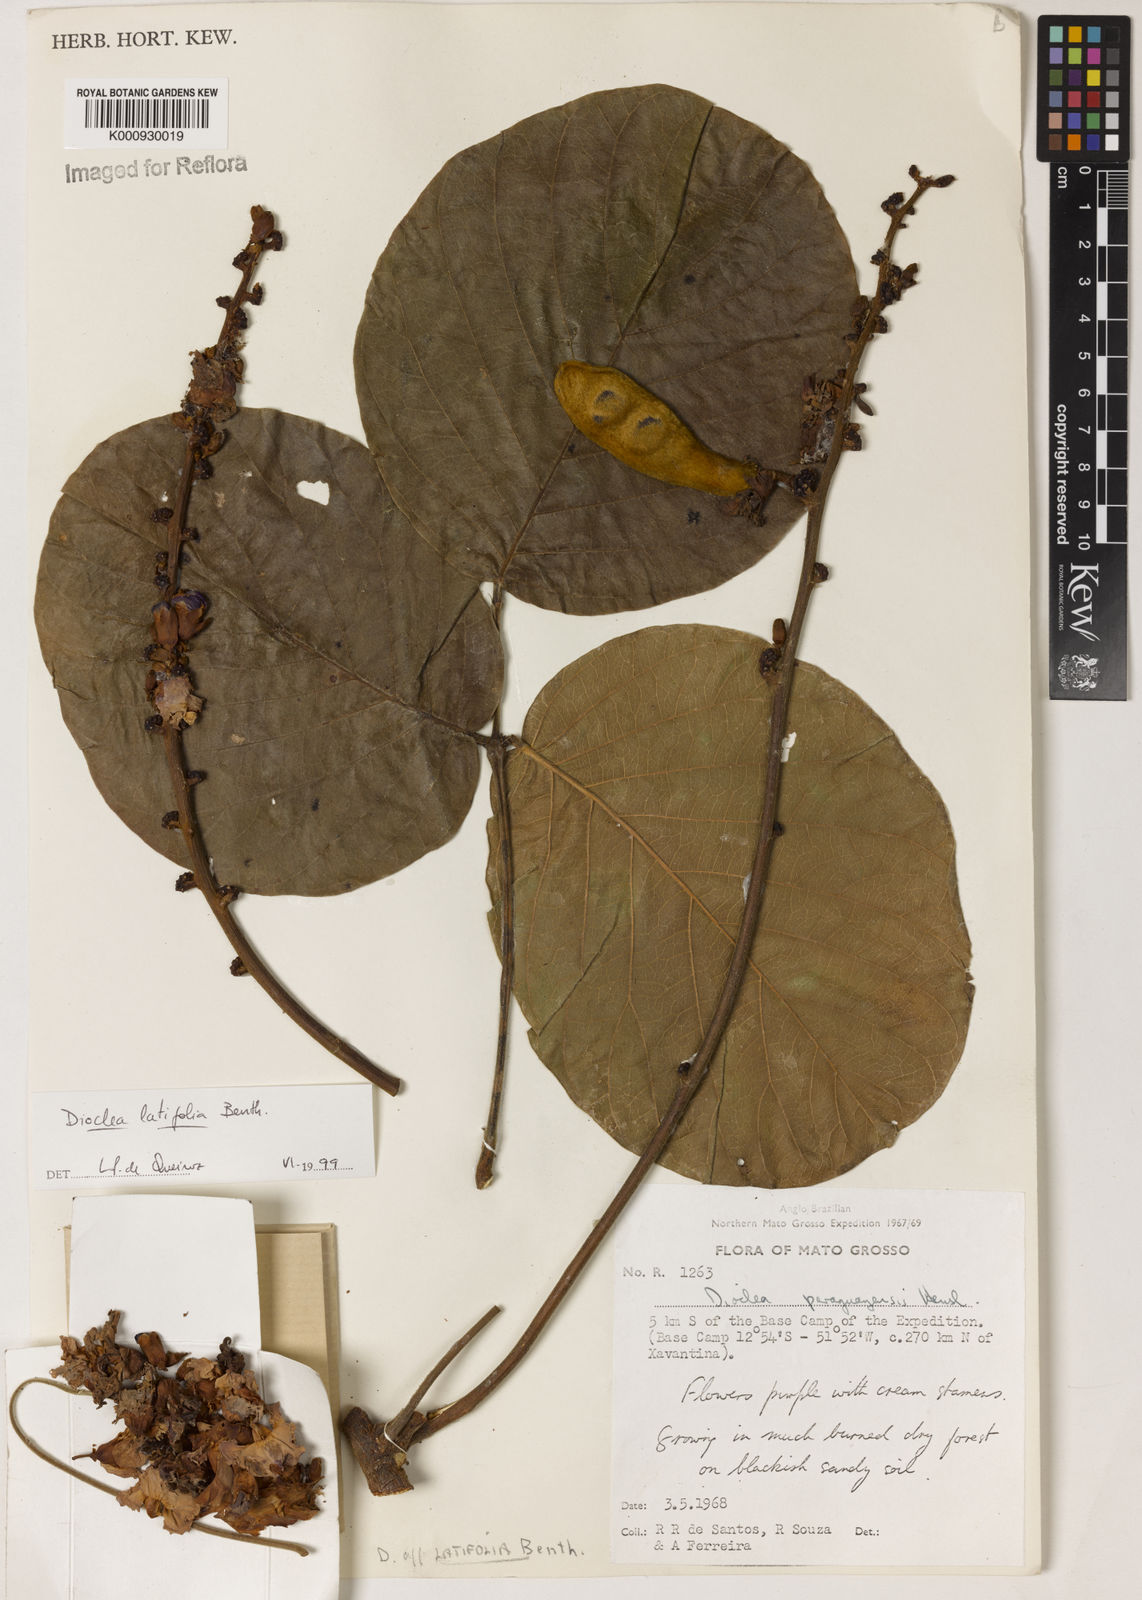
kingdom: Plantae
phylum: Tracheophyta
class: Magnoliopsida
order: Fabales
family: Fabaceae
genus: Macropsychanthus
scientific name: Macropsychanthus latifolius
